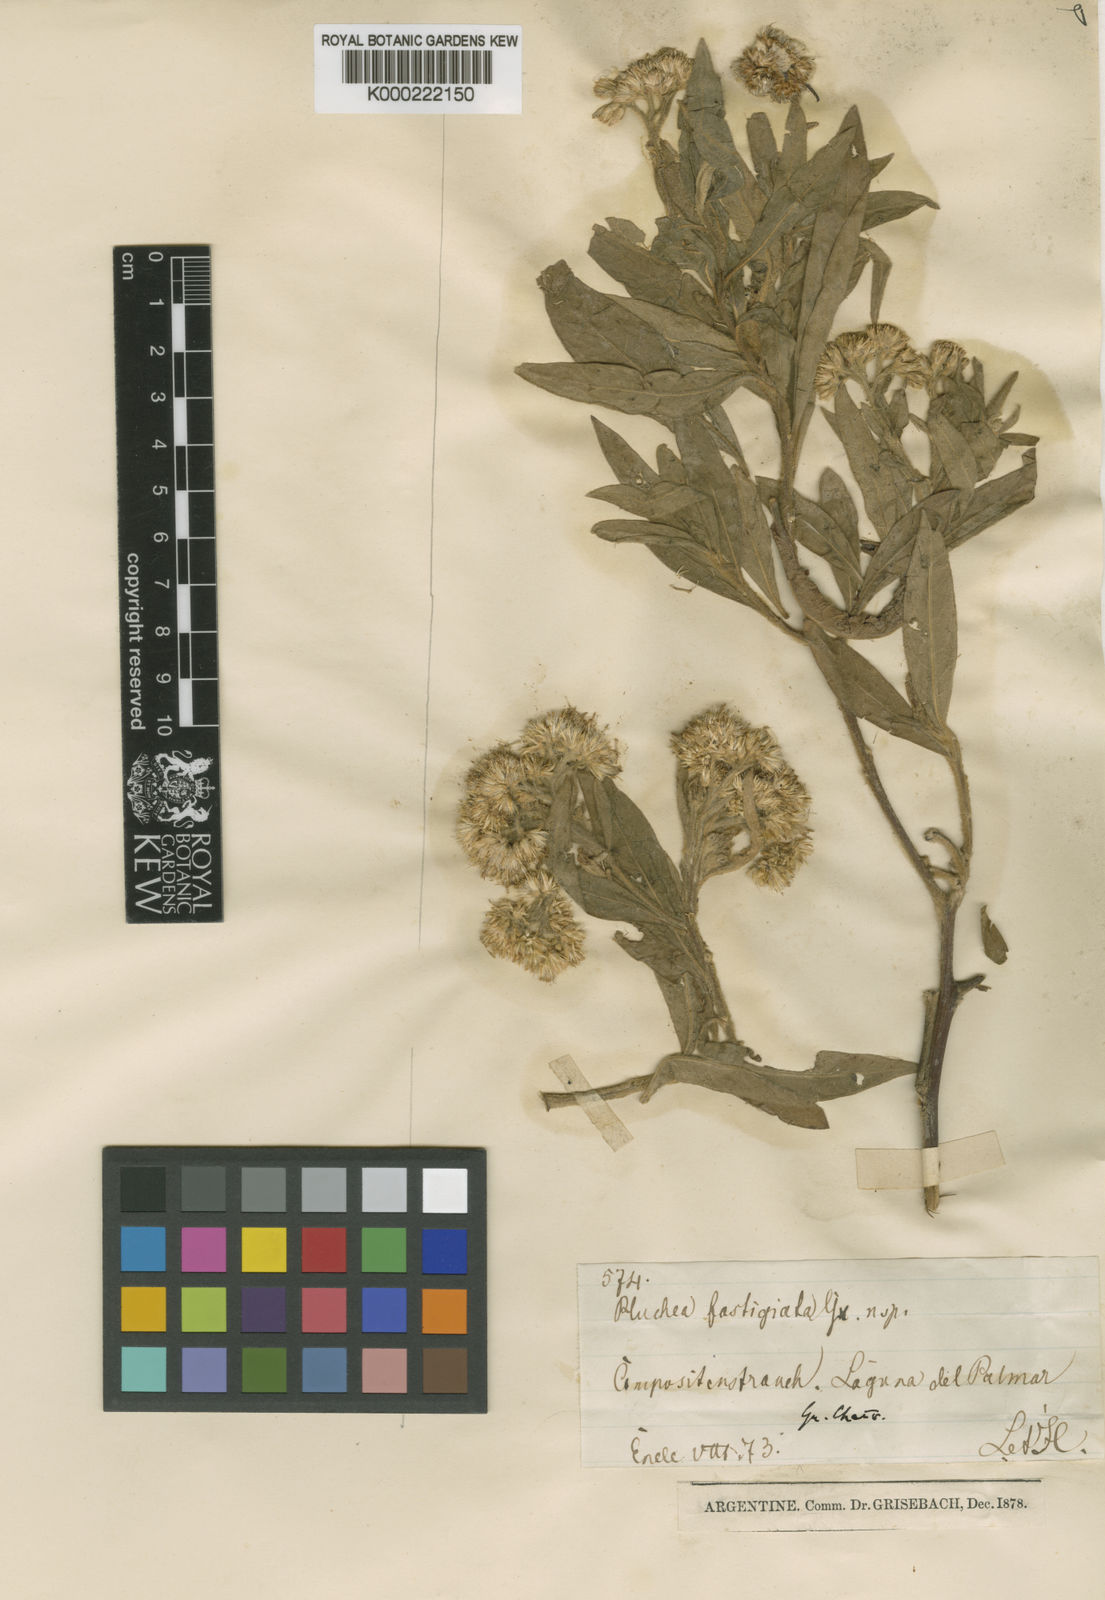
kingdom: Plantae
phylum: Tracheophyta
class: Magnoliopsida
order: Asterales
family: Asteraceae
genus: Tessaria
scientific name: Tessaria fastigiata
